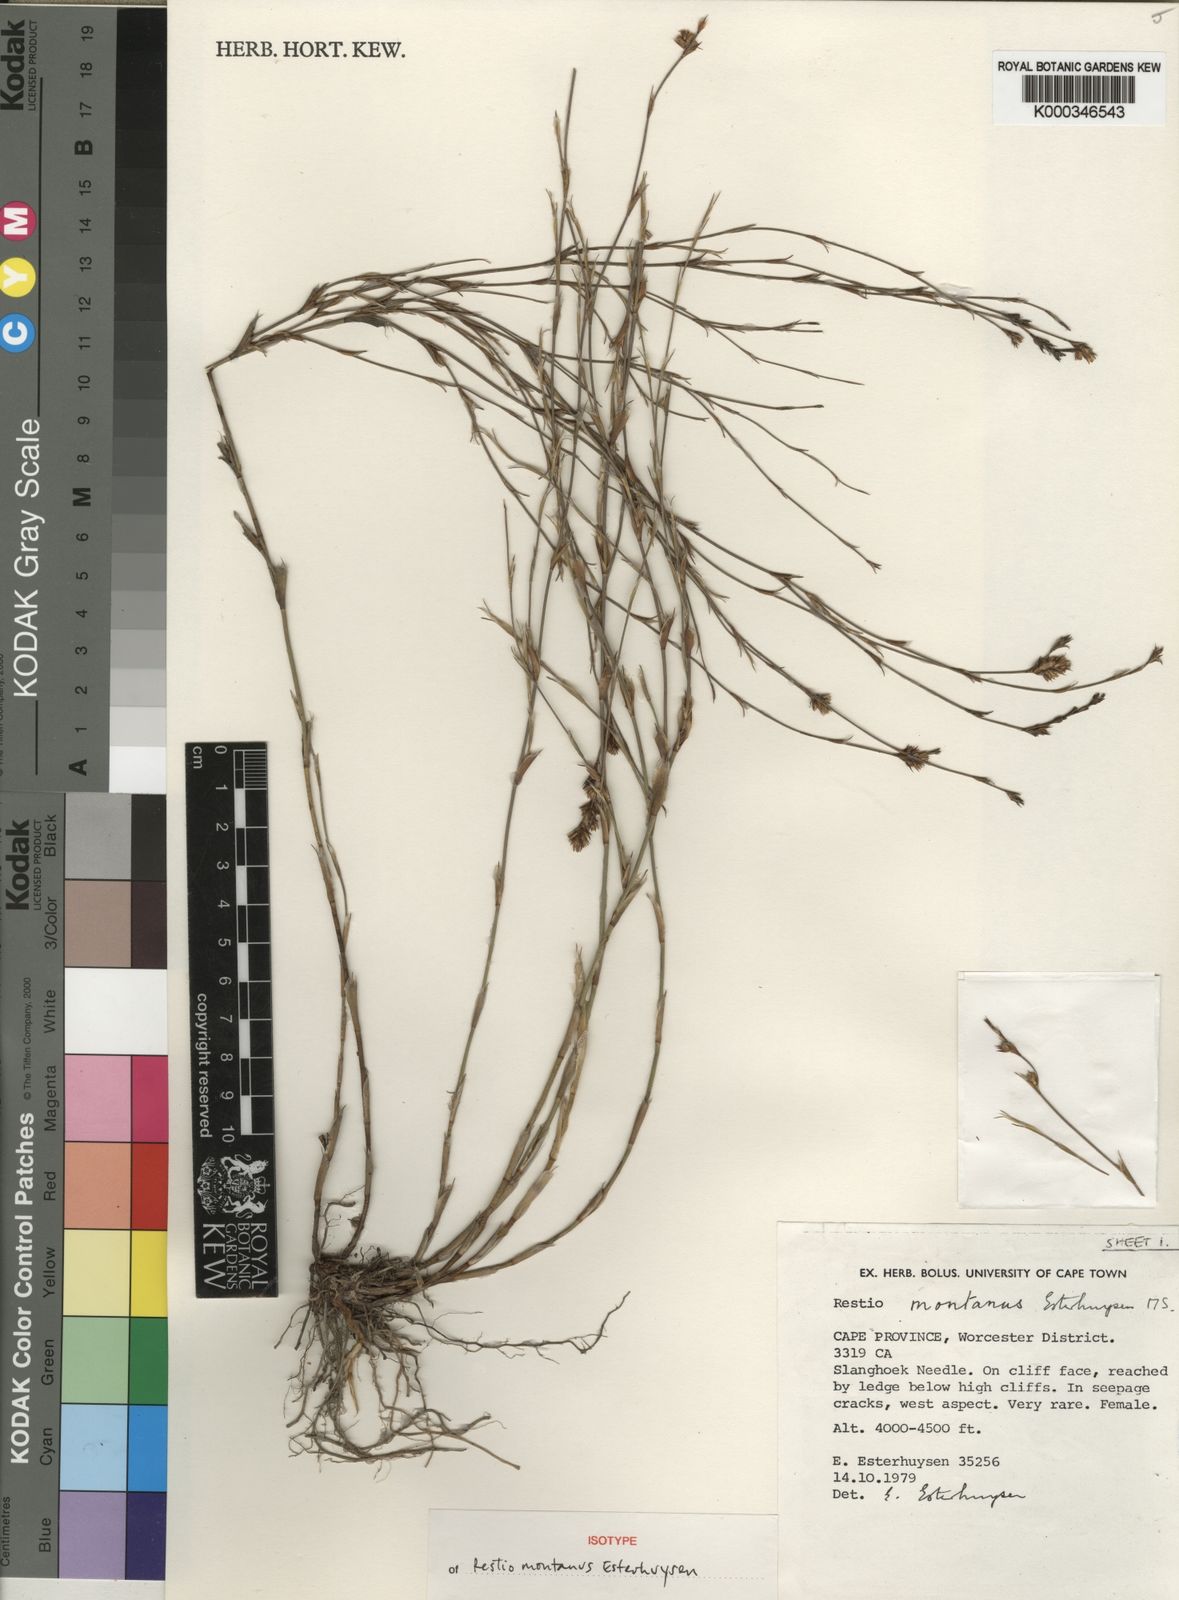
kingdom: Plantae
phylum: Tracheophyta
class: Liliopsida
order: Poales
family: Restionaceae
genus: Restio
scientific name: Restio montanus
